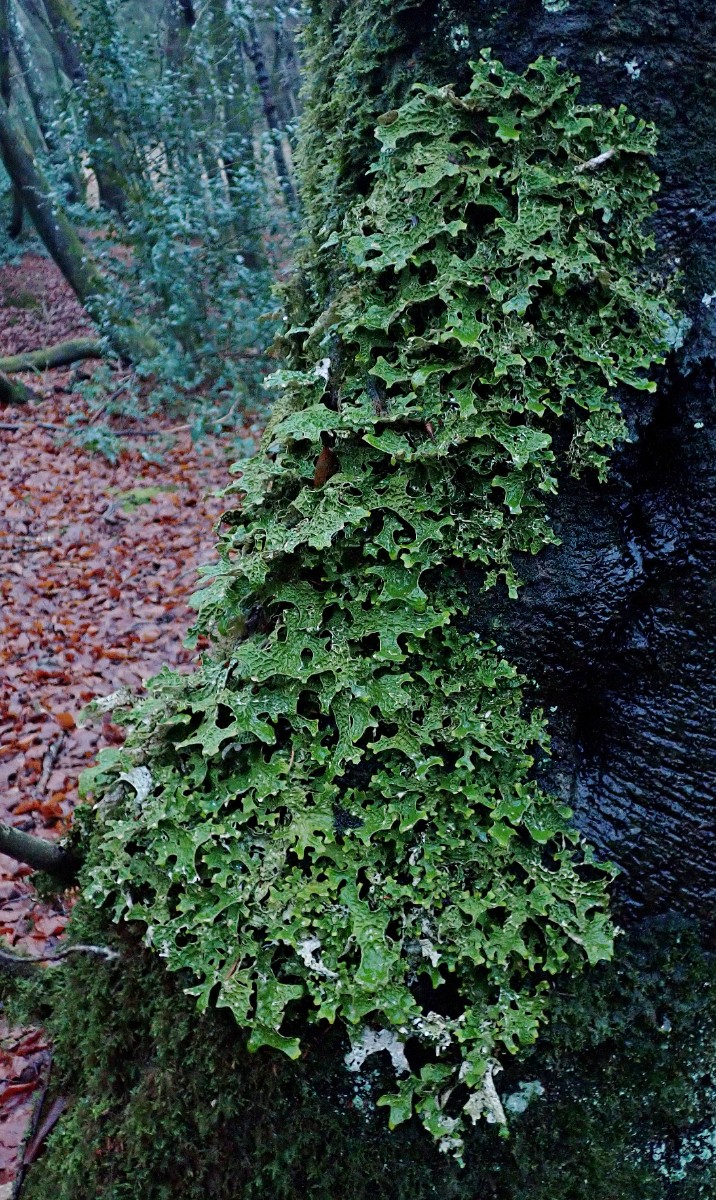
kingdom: Fungi
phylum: Ascomycota
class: Lecanoromycetes
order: Peltigerales
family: Lobariaceae
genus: Lobaria
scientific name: Lobaria pulmonaria
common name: almindelig lungelav
